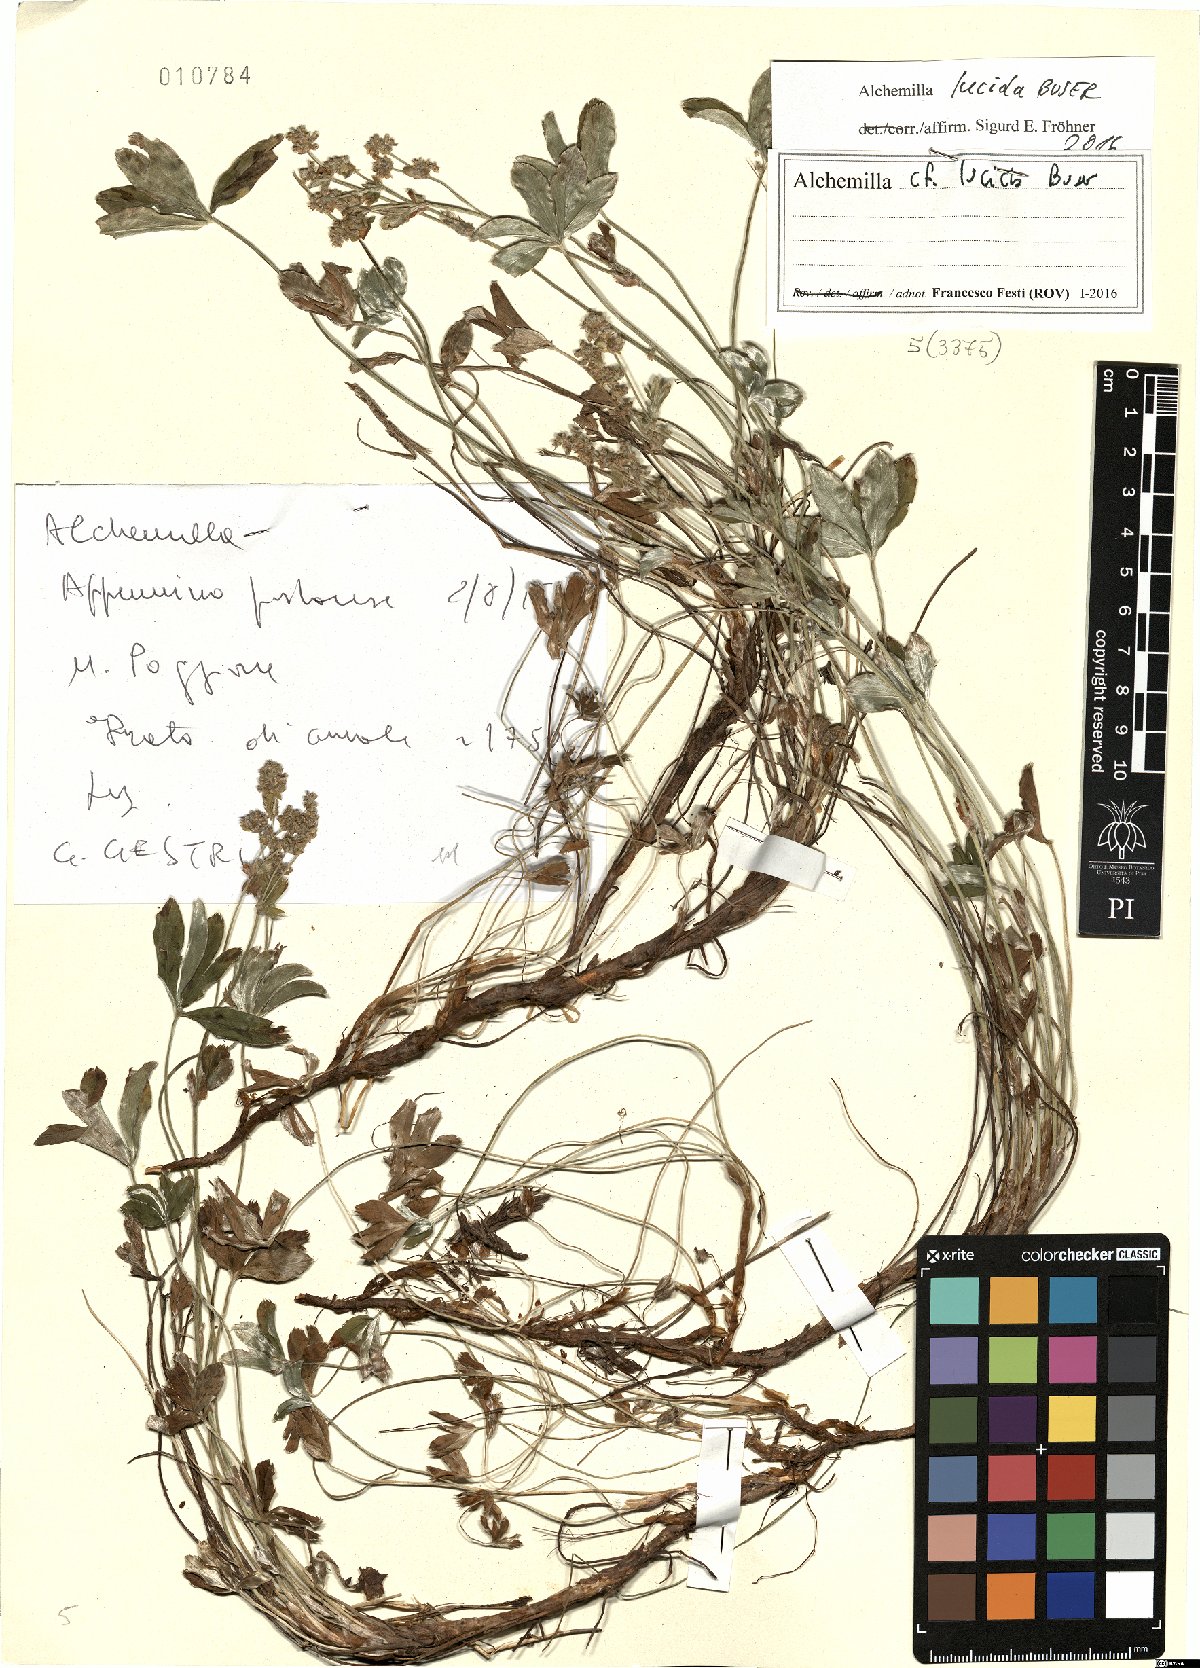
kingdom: Plantae
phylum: Tracheophyta
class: Magnoliopsida
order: Rosales
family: Rosaceae
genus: Alchemilla
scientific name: Alchemilla lucida
